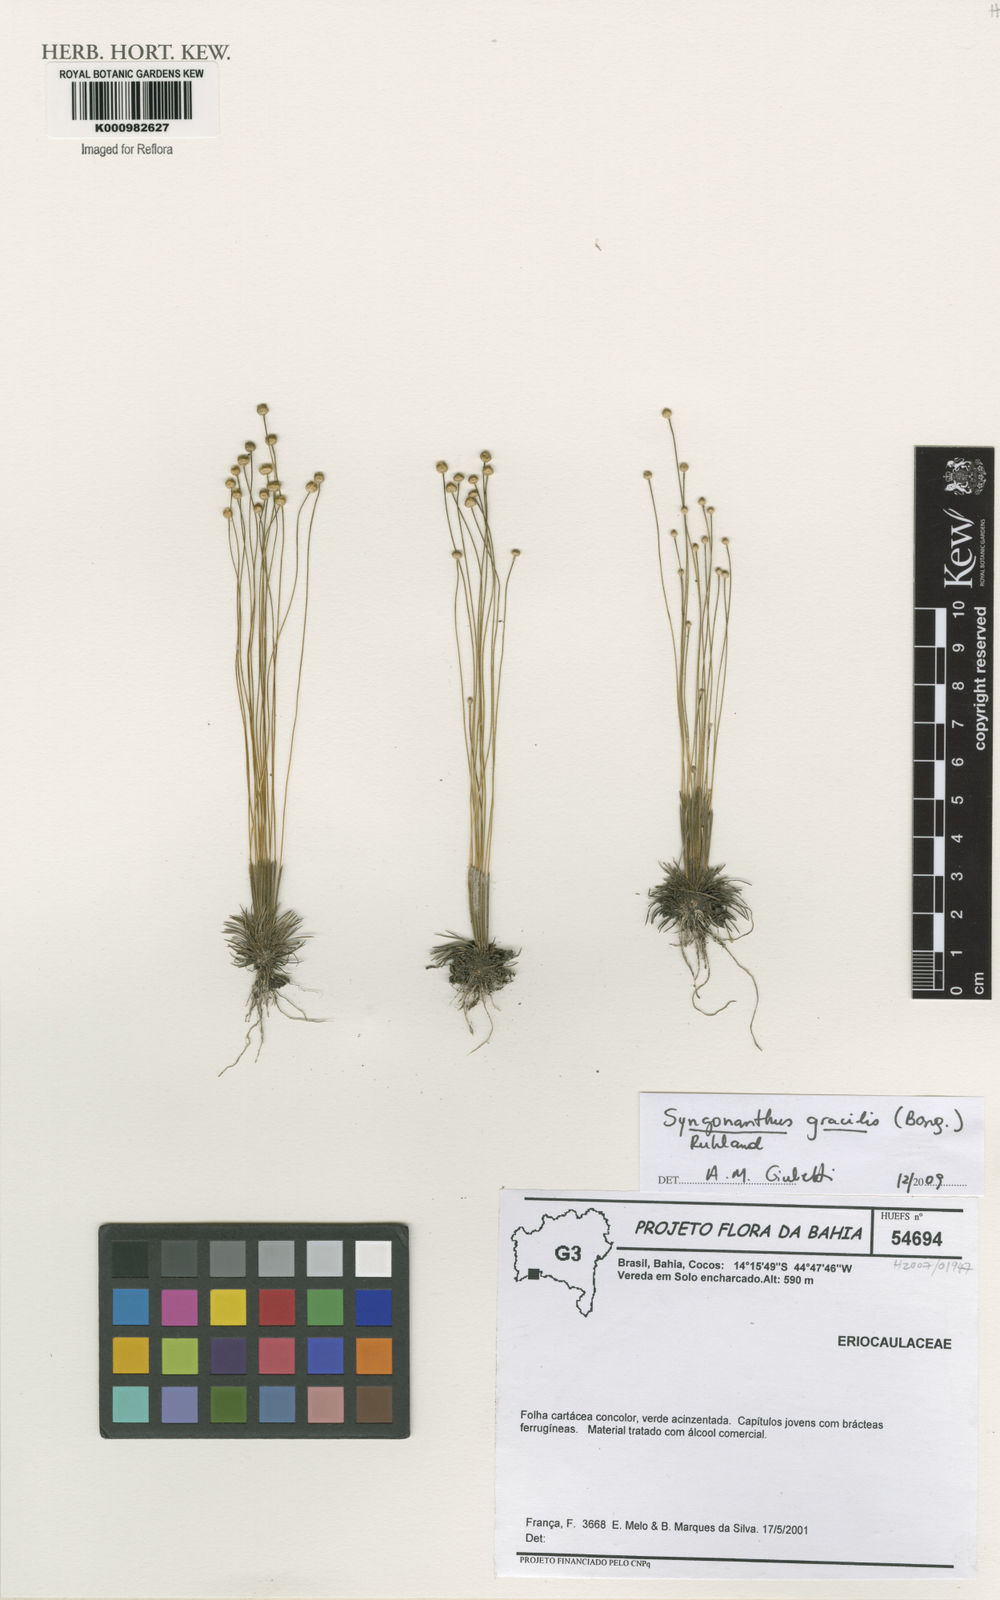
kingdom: Plantae
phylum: Tracheophyta
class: Liliopsida
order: Poales
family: Eriocaulaceae
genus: Syngonanthus
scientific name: Syngonanthus gracilis
